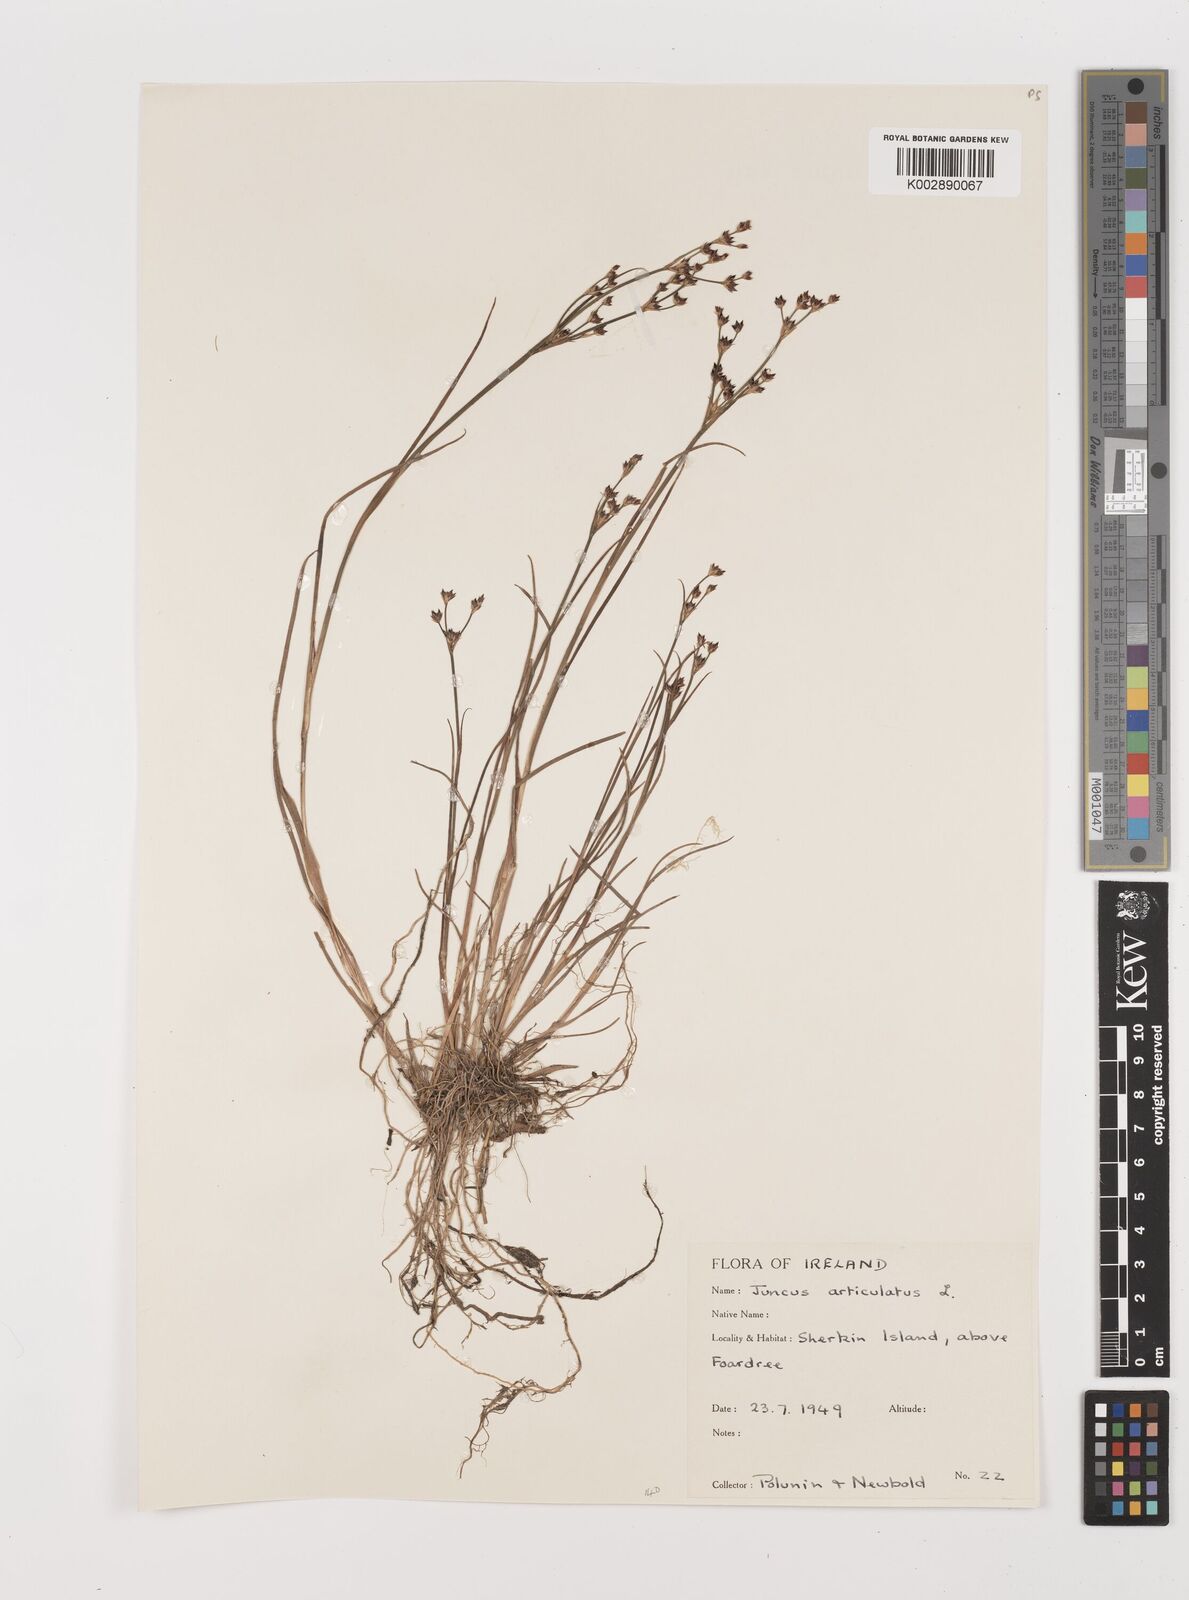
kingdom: Plantae
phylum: Tracheophyta
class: Liliopsida
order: Poales
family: Juncaceae
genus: Juncus
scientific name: Juncus articulatus
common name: Jointed rush
